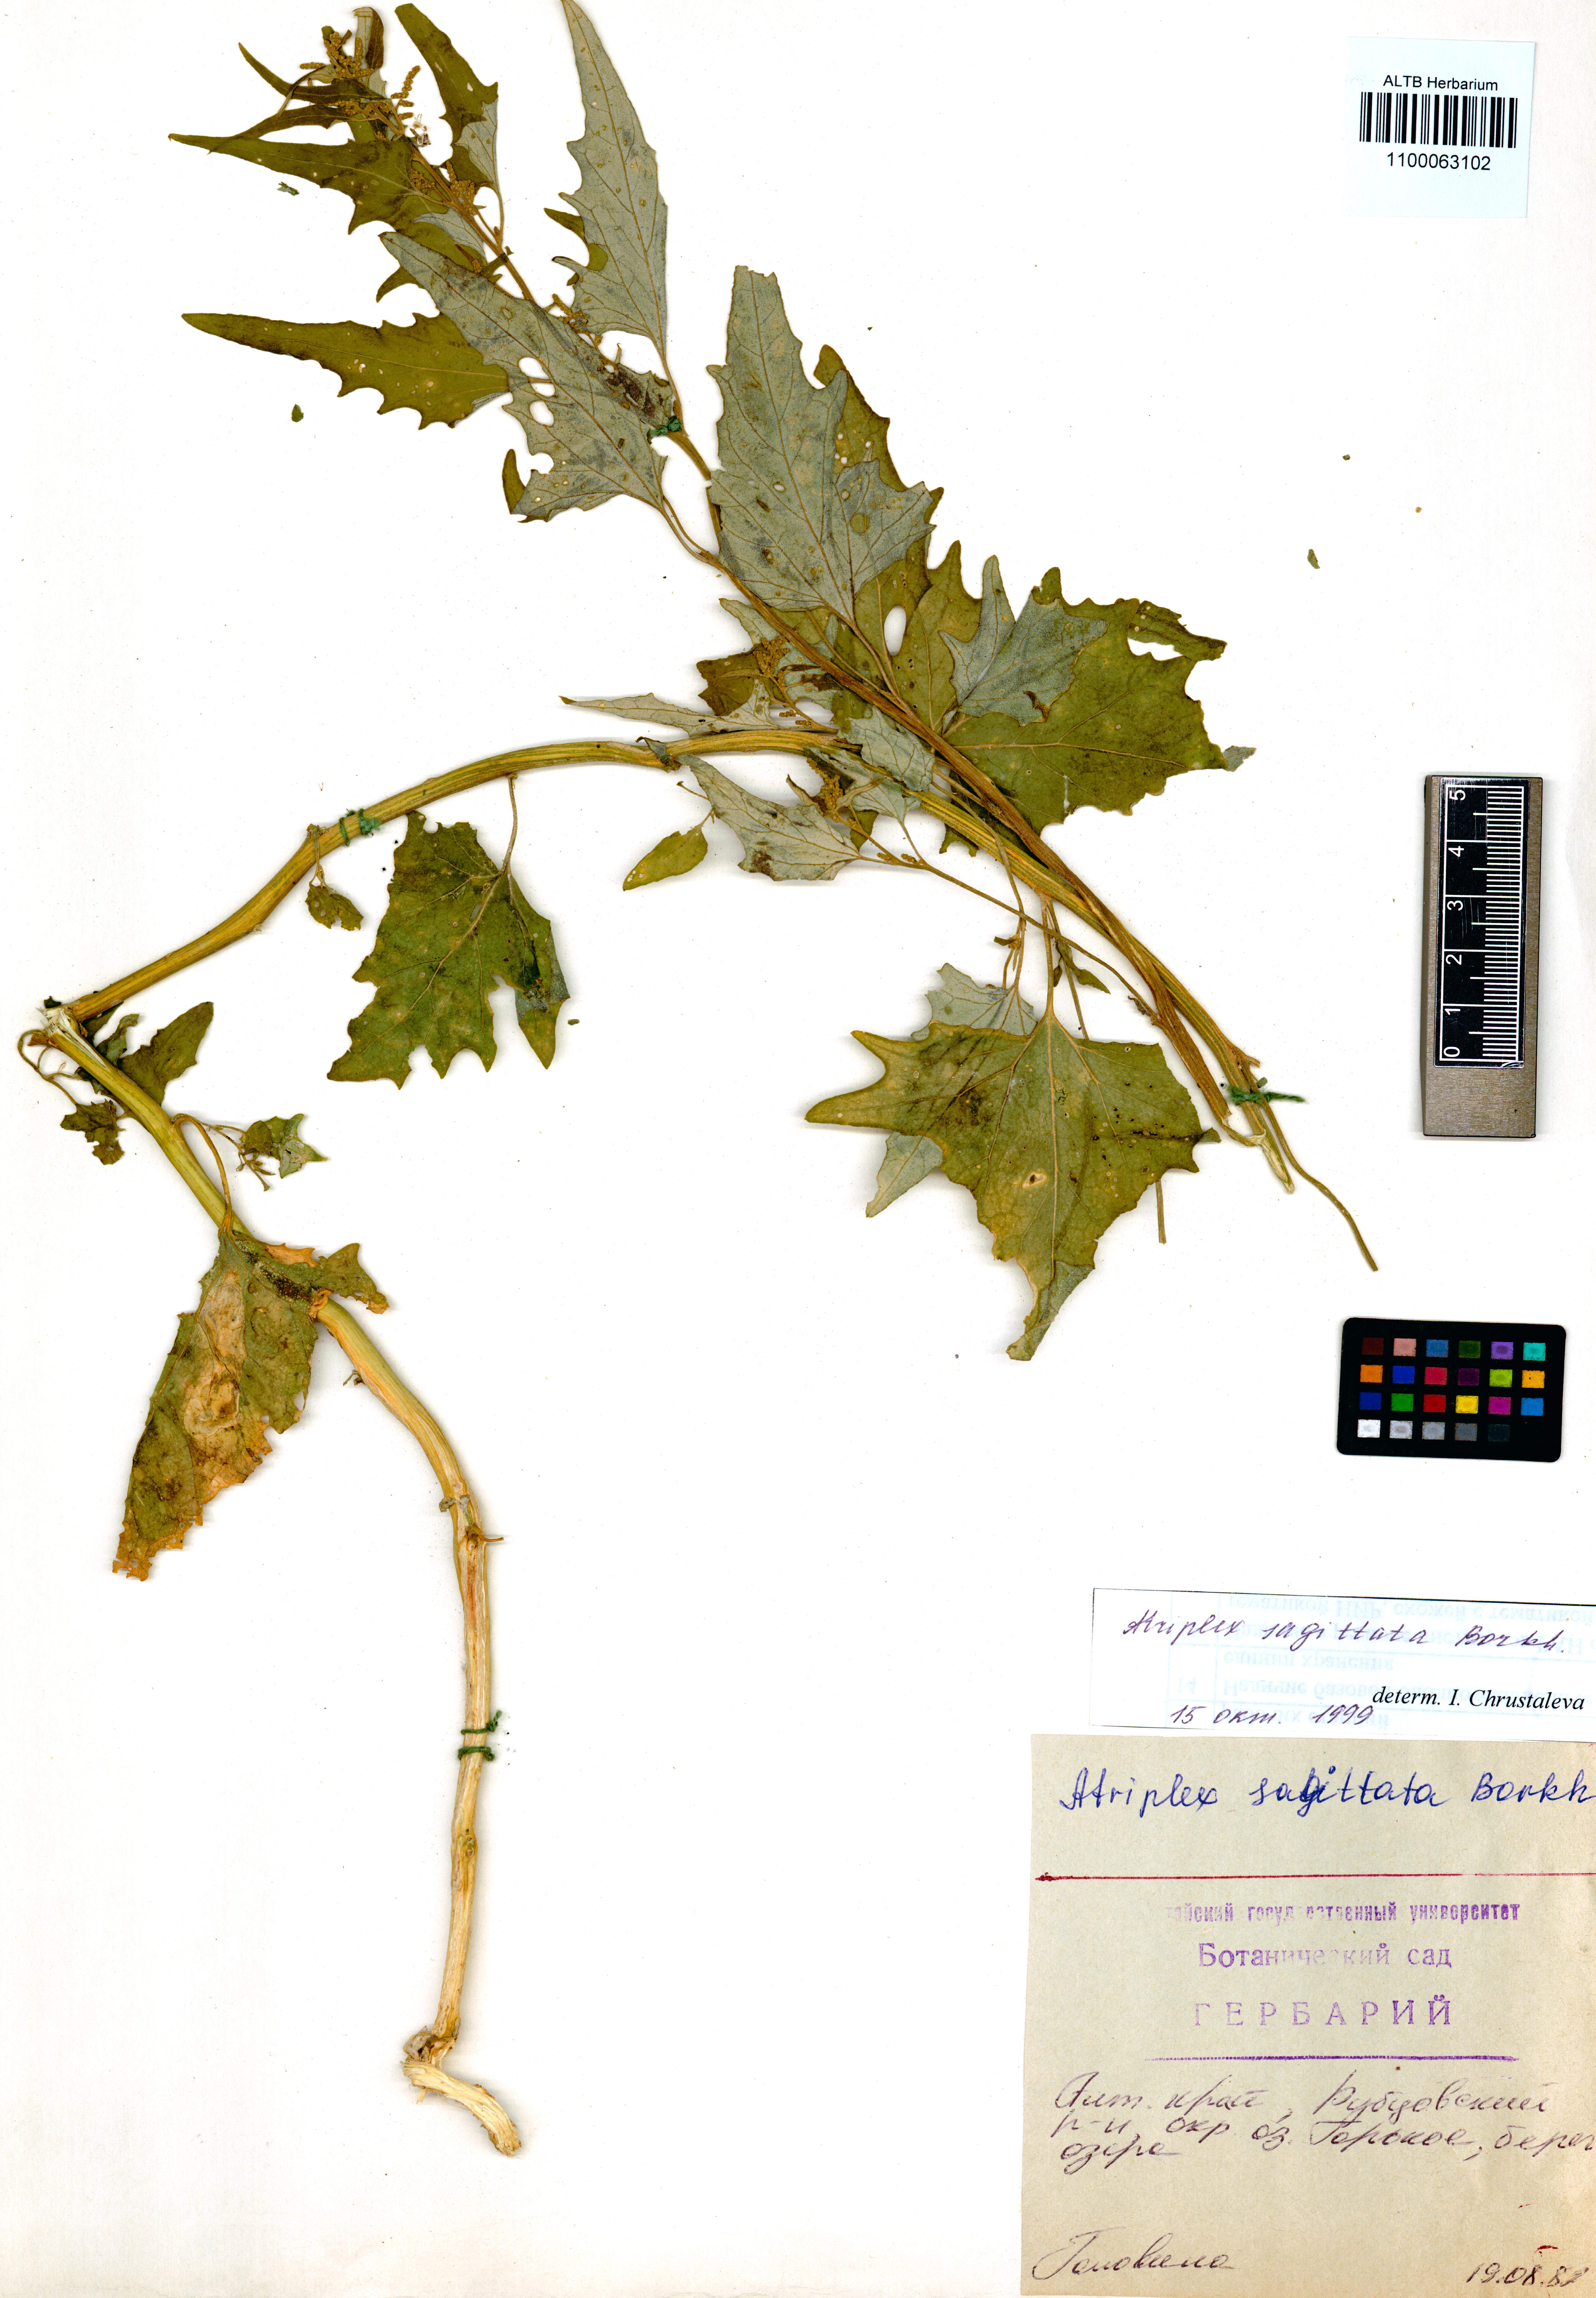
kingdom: Plantae
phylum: Tracheophyta
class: Magnoliopsida
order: Caryophyllales
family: Amaranthaceae
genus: Atriplex
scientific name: Atriplex sagittata
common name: Purple orache
